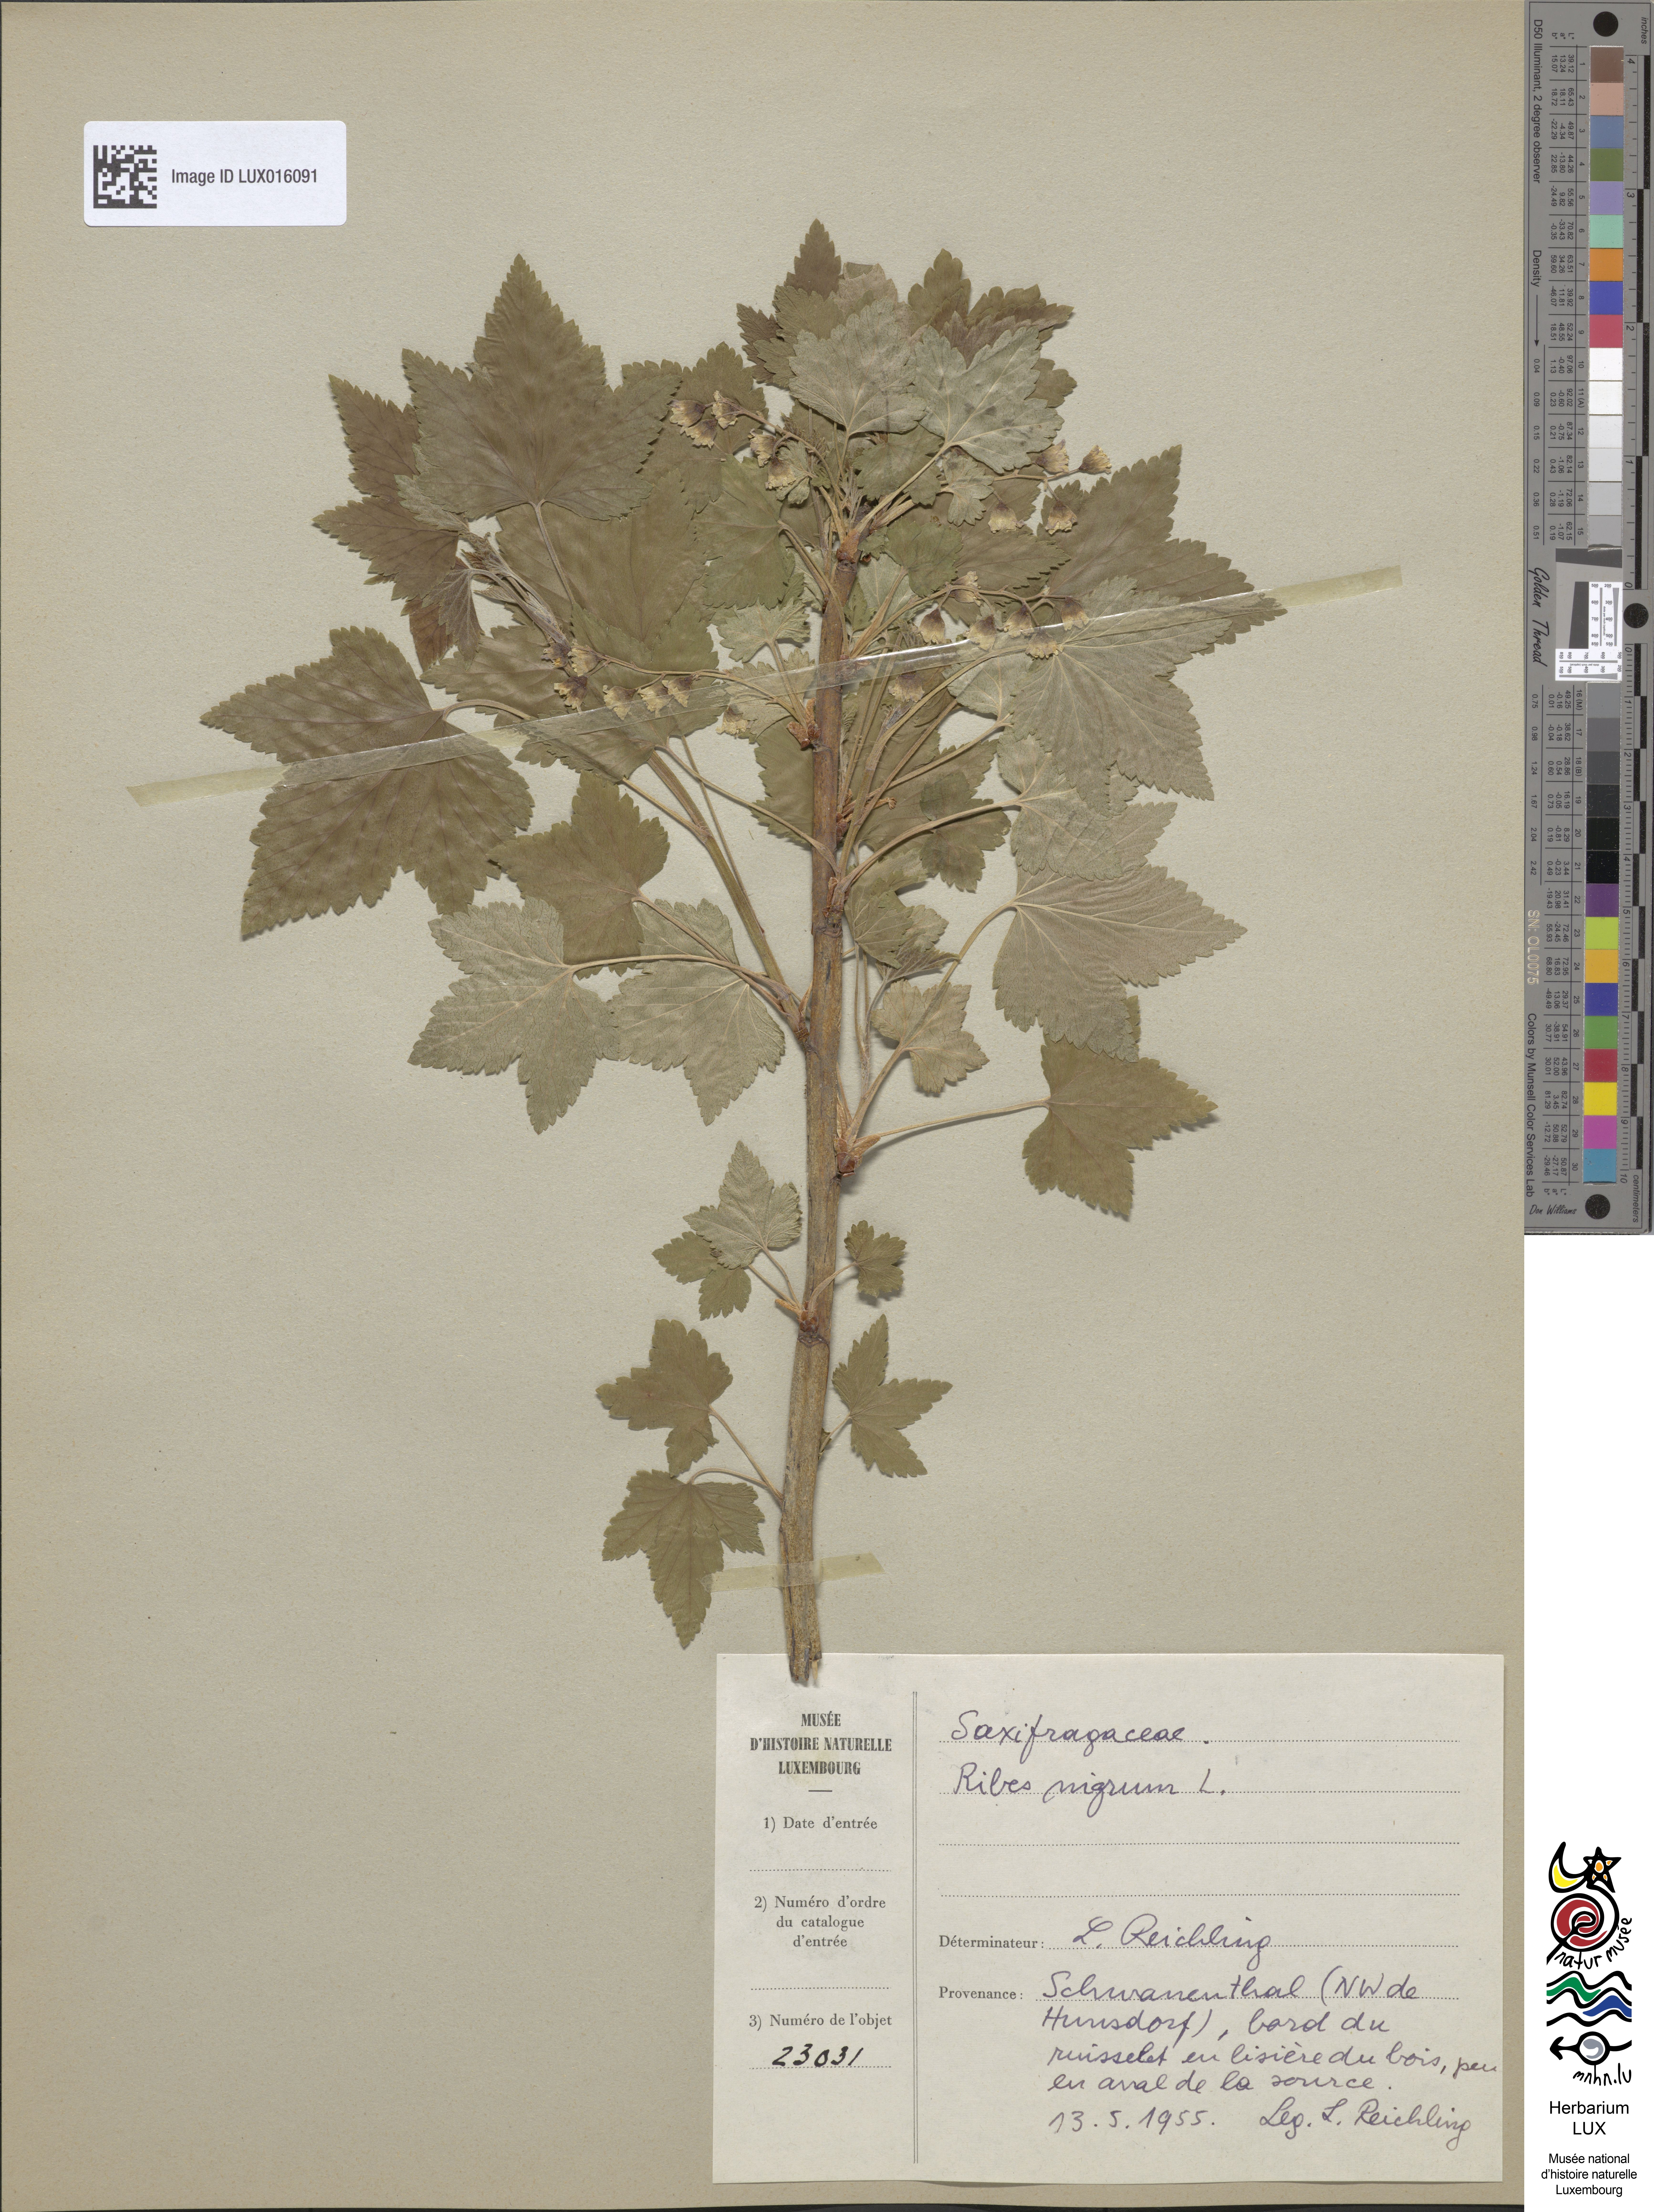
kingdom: Plantae
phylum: Tracheophyta
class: Magnoliopsida
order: Saxifragales
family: Grossulariaceae
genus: Ribes
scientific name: Ribes nigrum
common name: Black currant
